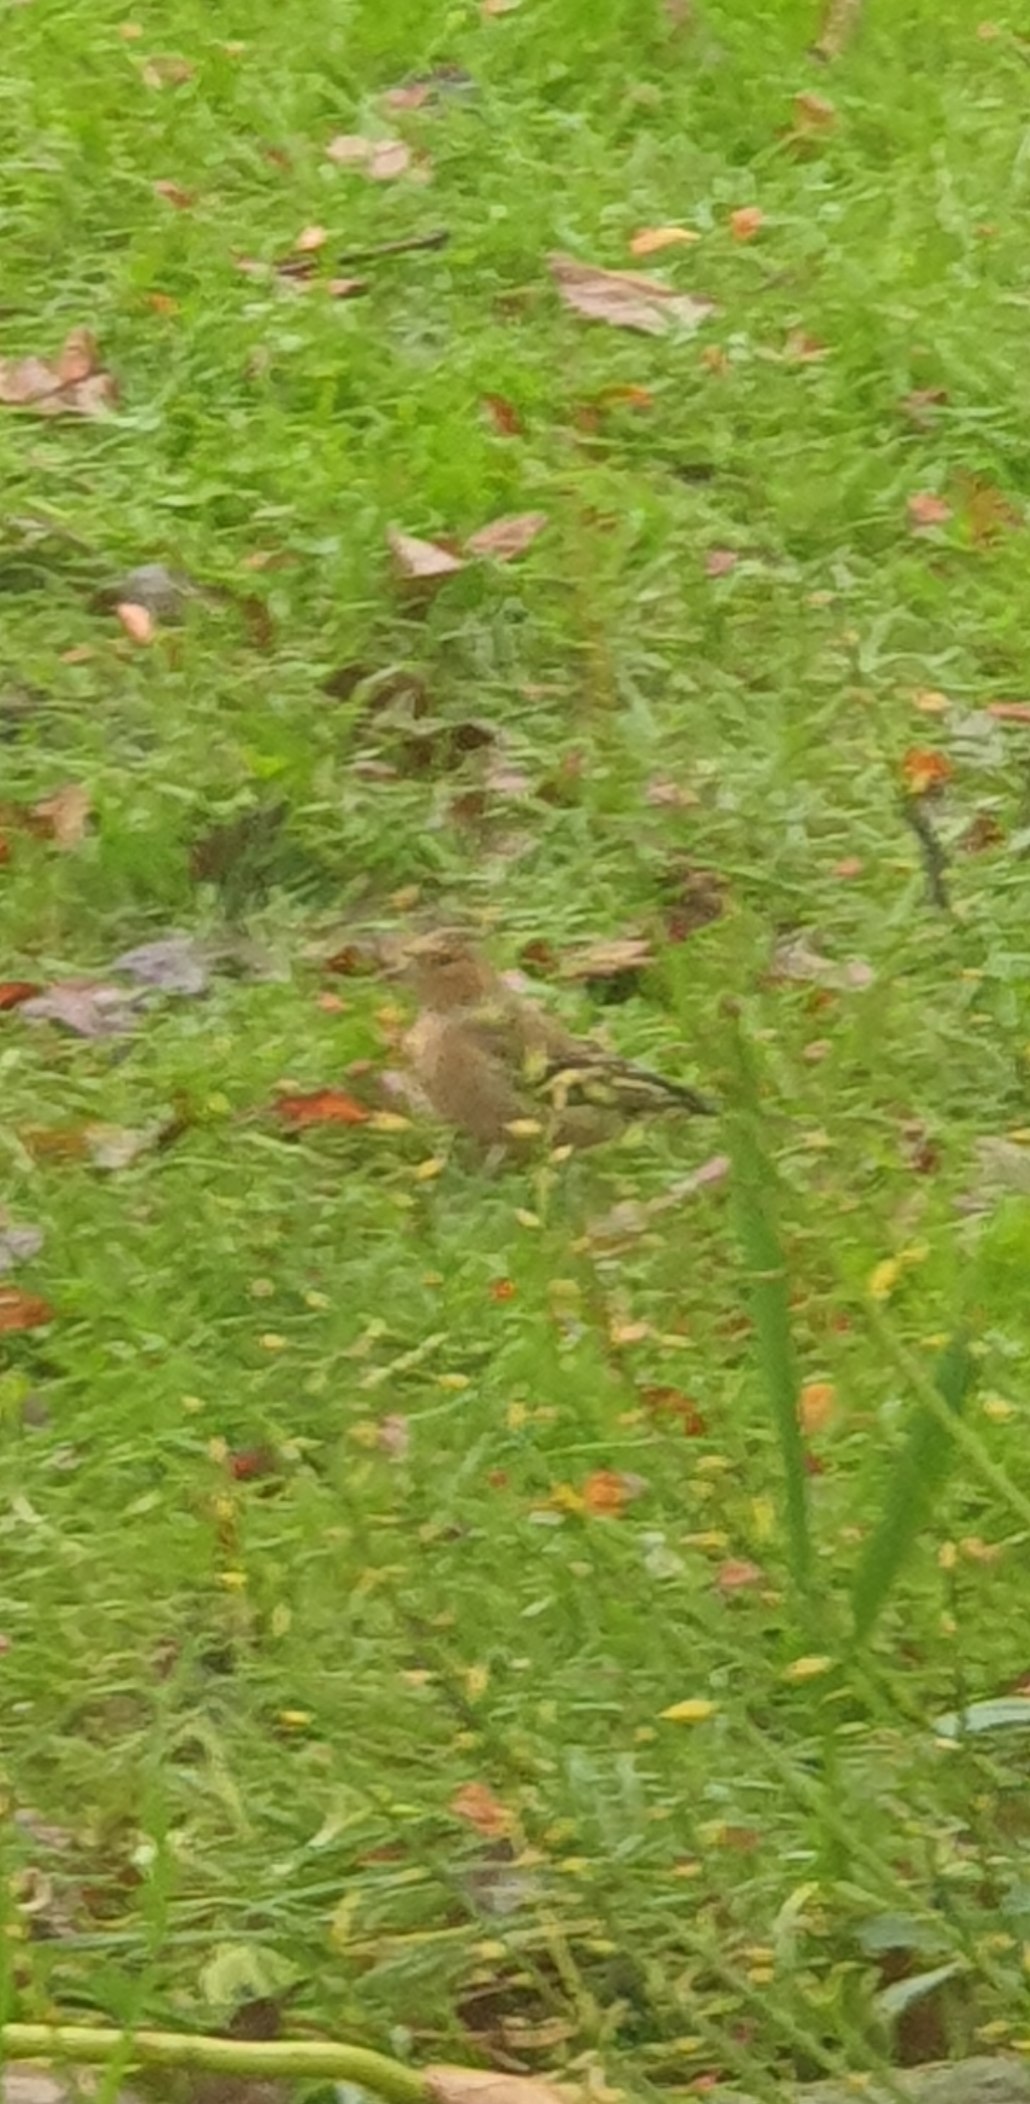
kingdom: Animalia
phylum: Chordata
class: Aves
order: Passeriformes
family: Fringillidae
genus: Fringilla
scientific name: Fringilla coelebs
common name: Bogfinke
